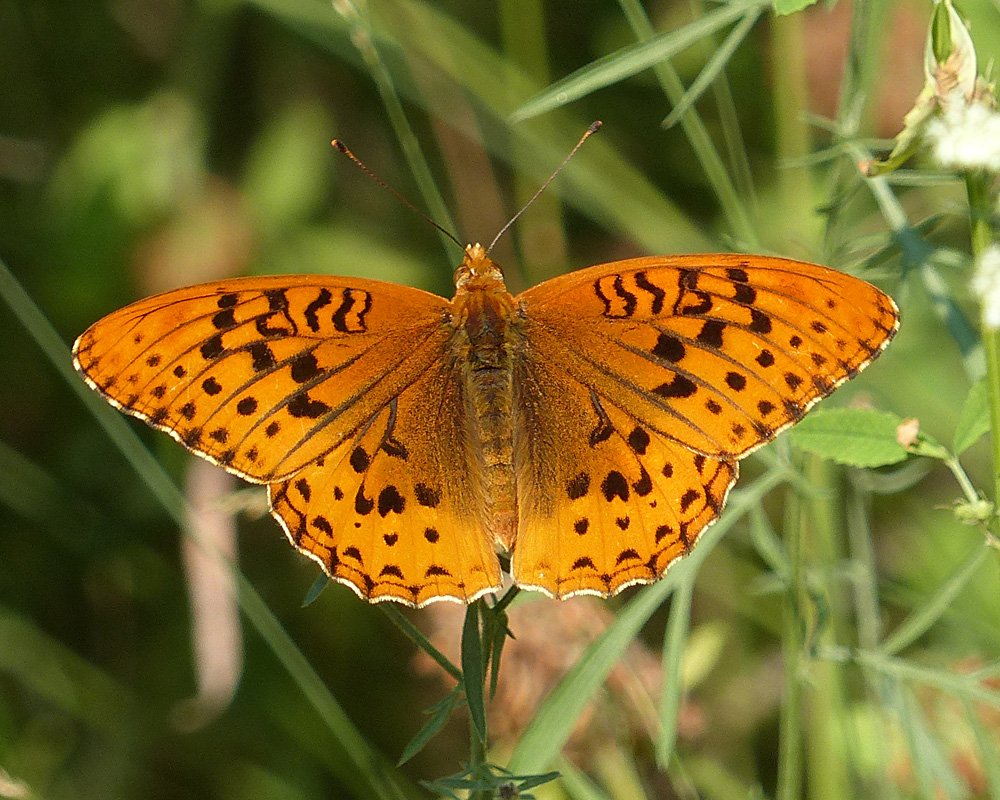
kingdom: Animalia
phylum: Arthropoda
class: Insecta
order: Lepidoptera
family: Nymphalidae
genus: Speyeria
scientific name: Speyeria cybele
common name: Great Spangled Fritillary
